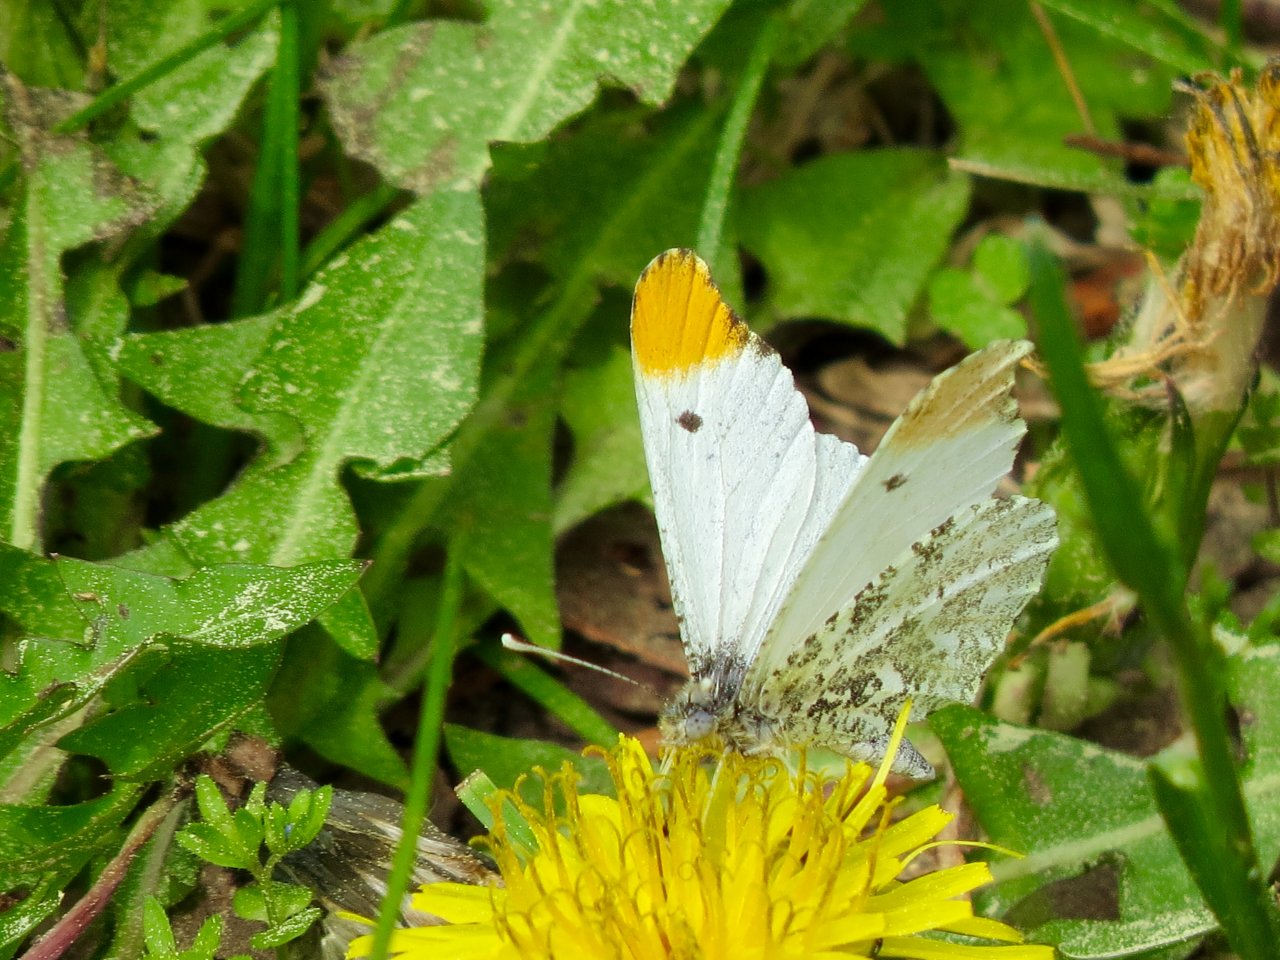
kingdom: Animalia
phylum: Arthropoda
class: Insecta
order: Lepidoptera
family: Pieridae
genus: Anthocharis
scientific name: Anthocharis midea
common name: Falcate Orangetip
